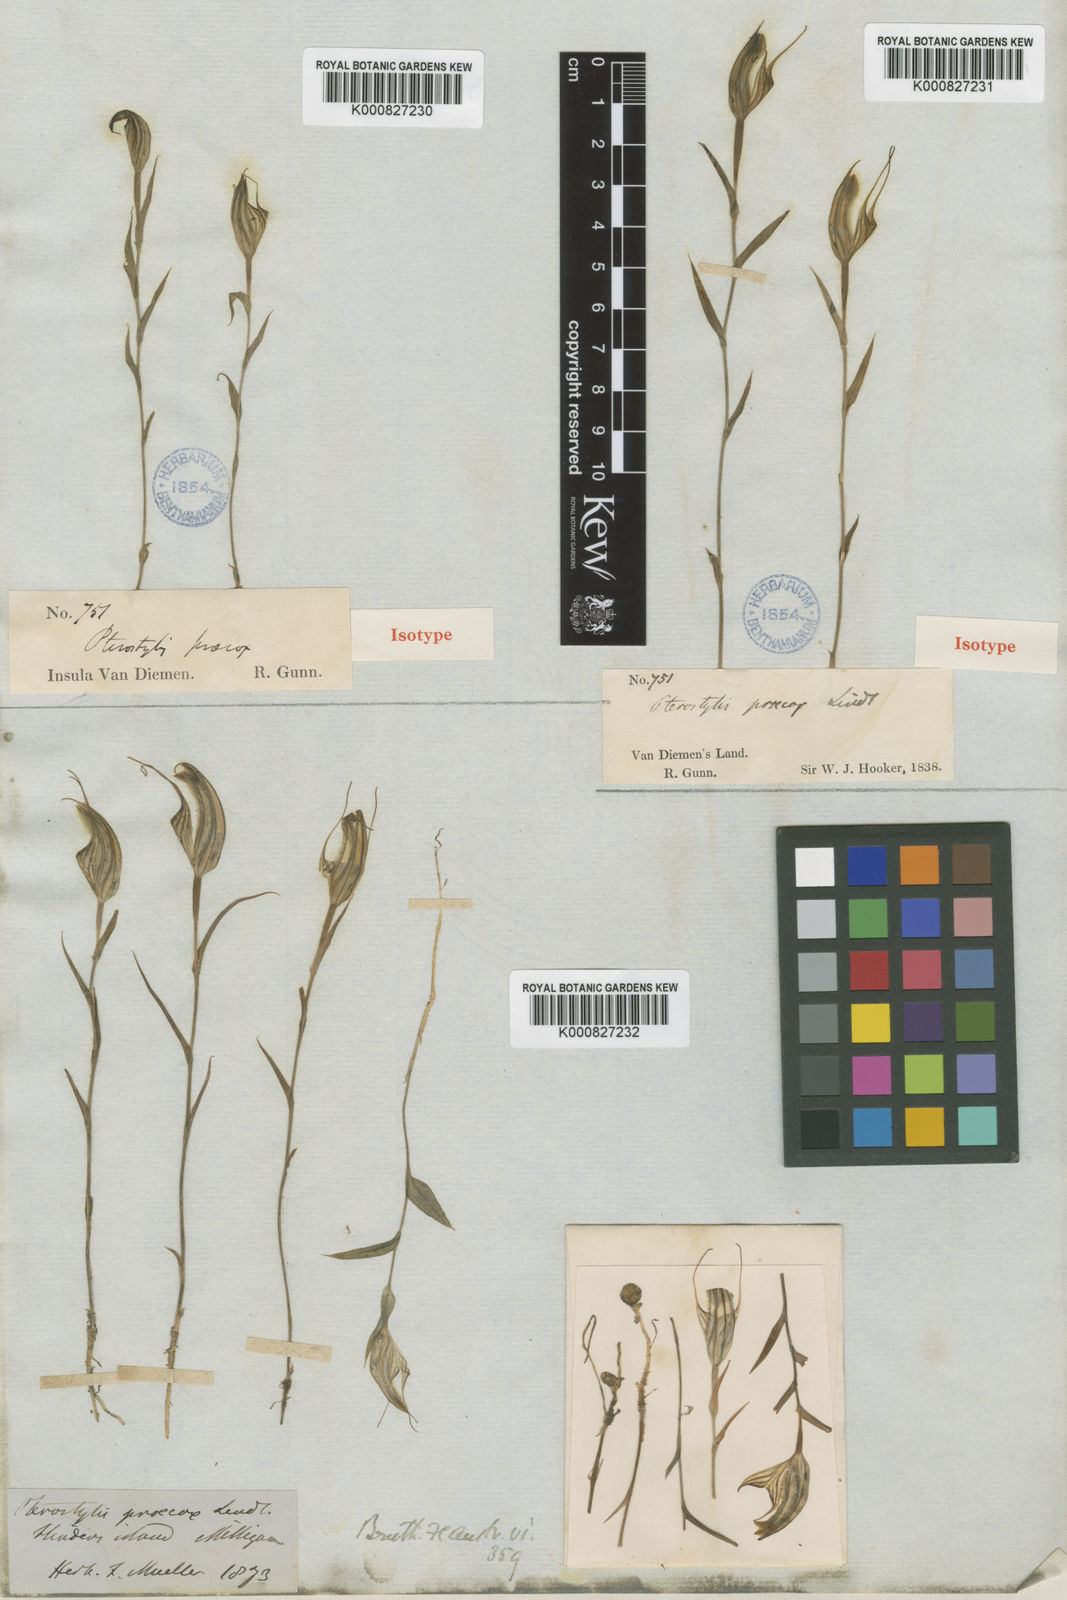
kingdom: Plantae
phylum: Tracheophyta
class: Liliopsida
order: Asparagales
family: Orchidaceae
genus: Pterostylis
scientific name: Pterostylis alata
